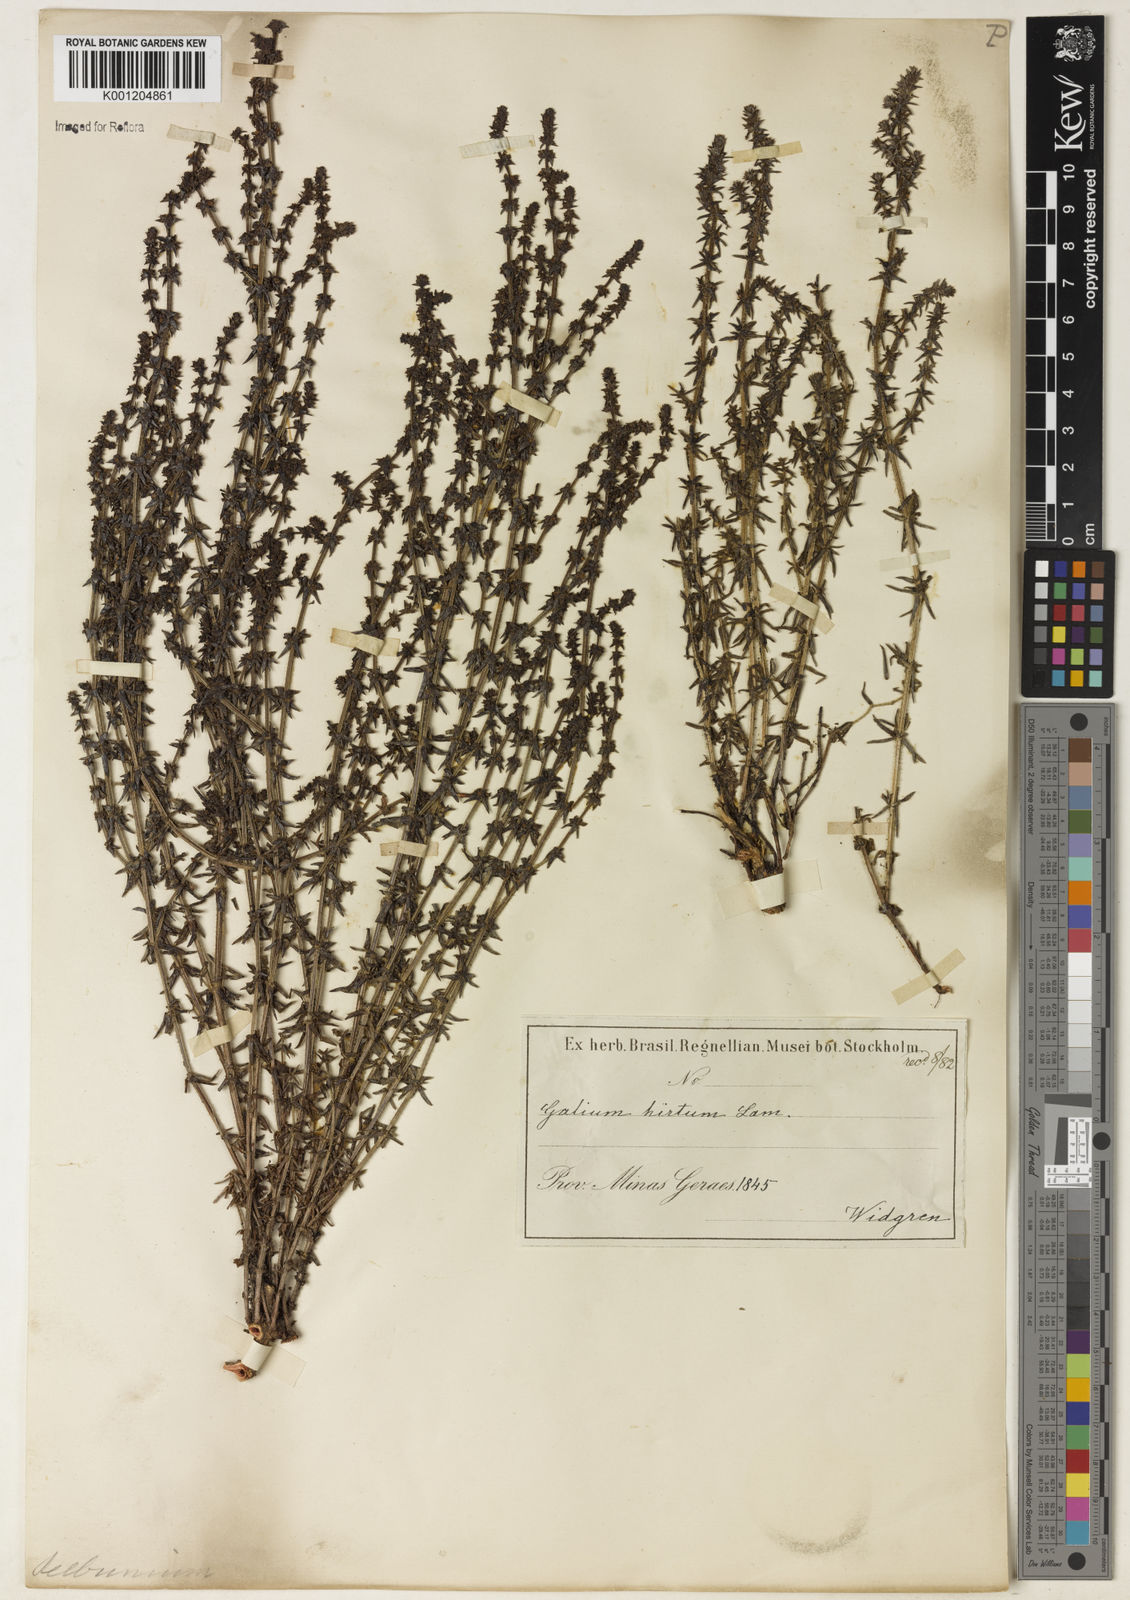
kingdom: Plantae
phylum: Tracheophyta
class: Magnoliopsida
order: Gentianales
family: Rubiaceae
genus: Galium
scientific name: Galium megapotamicum
